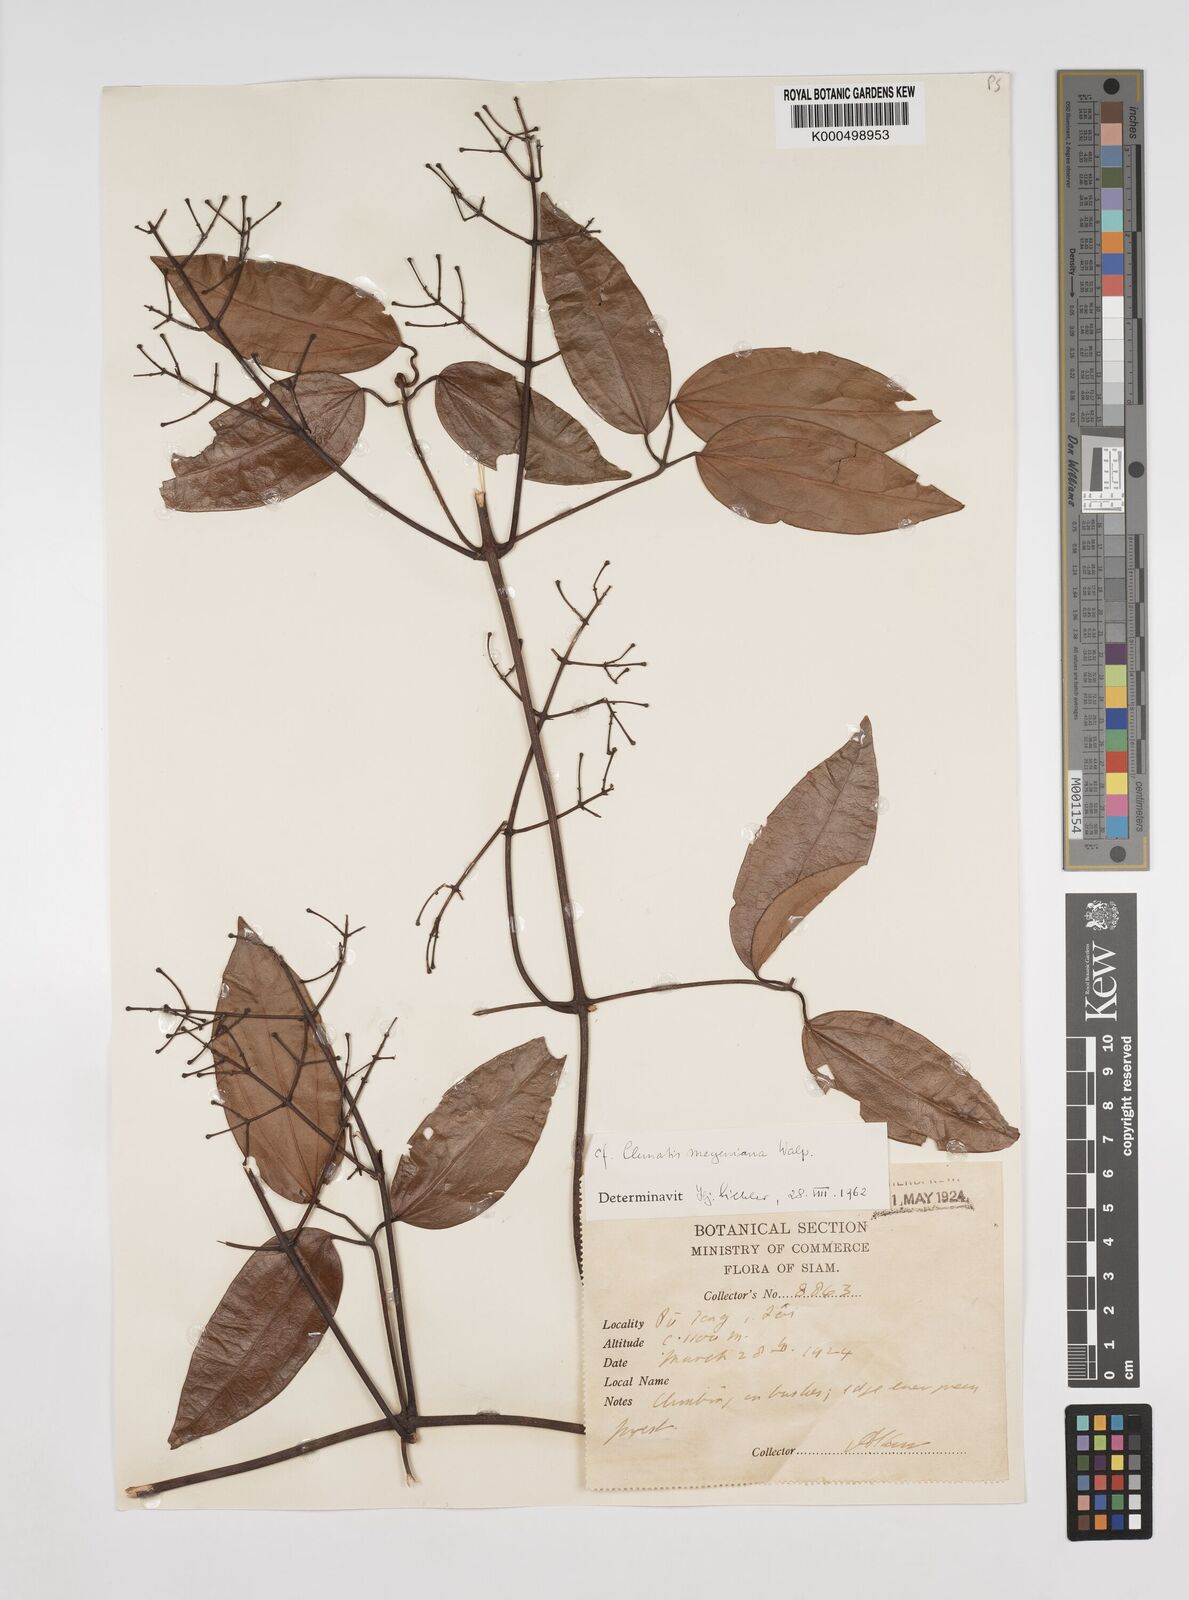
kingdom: Plantae
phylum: Tracheophyta
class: Magnoliopsida
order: Ranunculales
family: Ranunculaceae
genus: Clematis
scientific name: Clematis meyeniana
